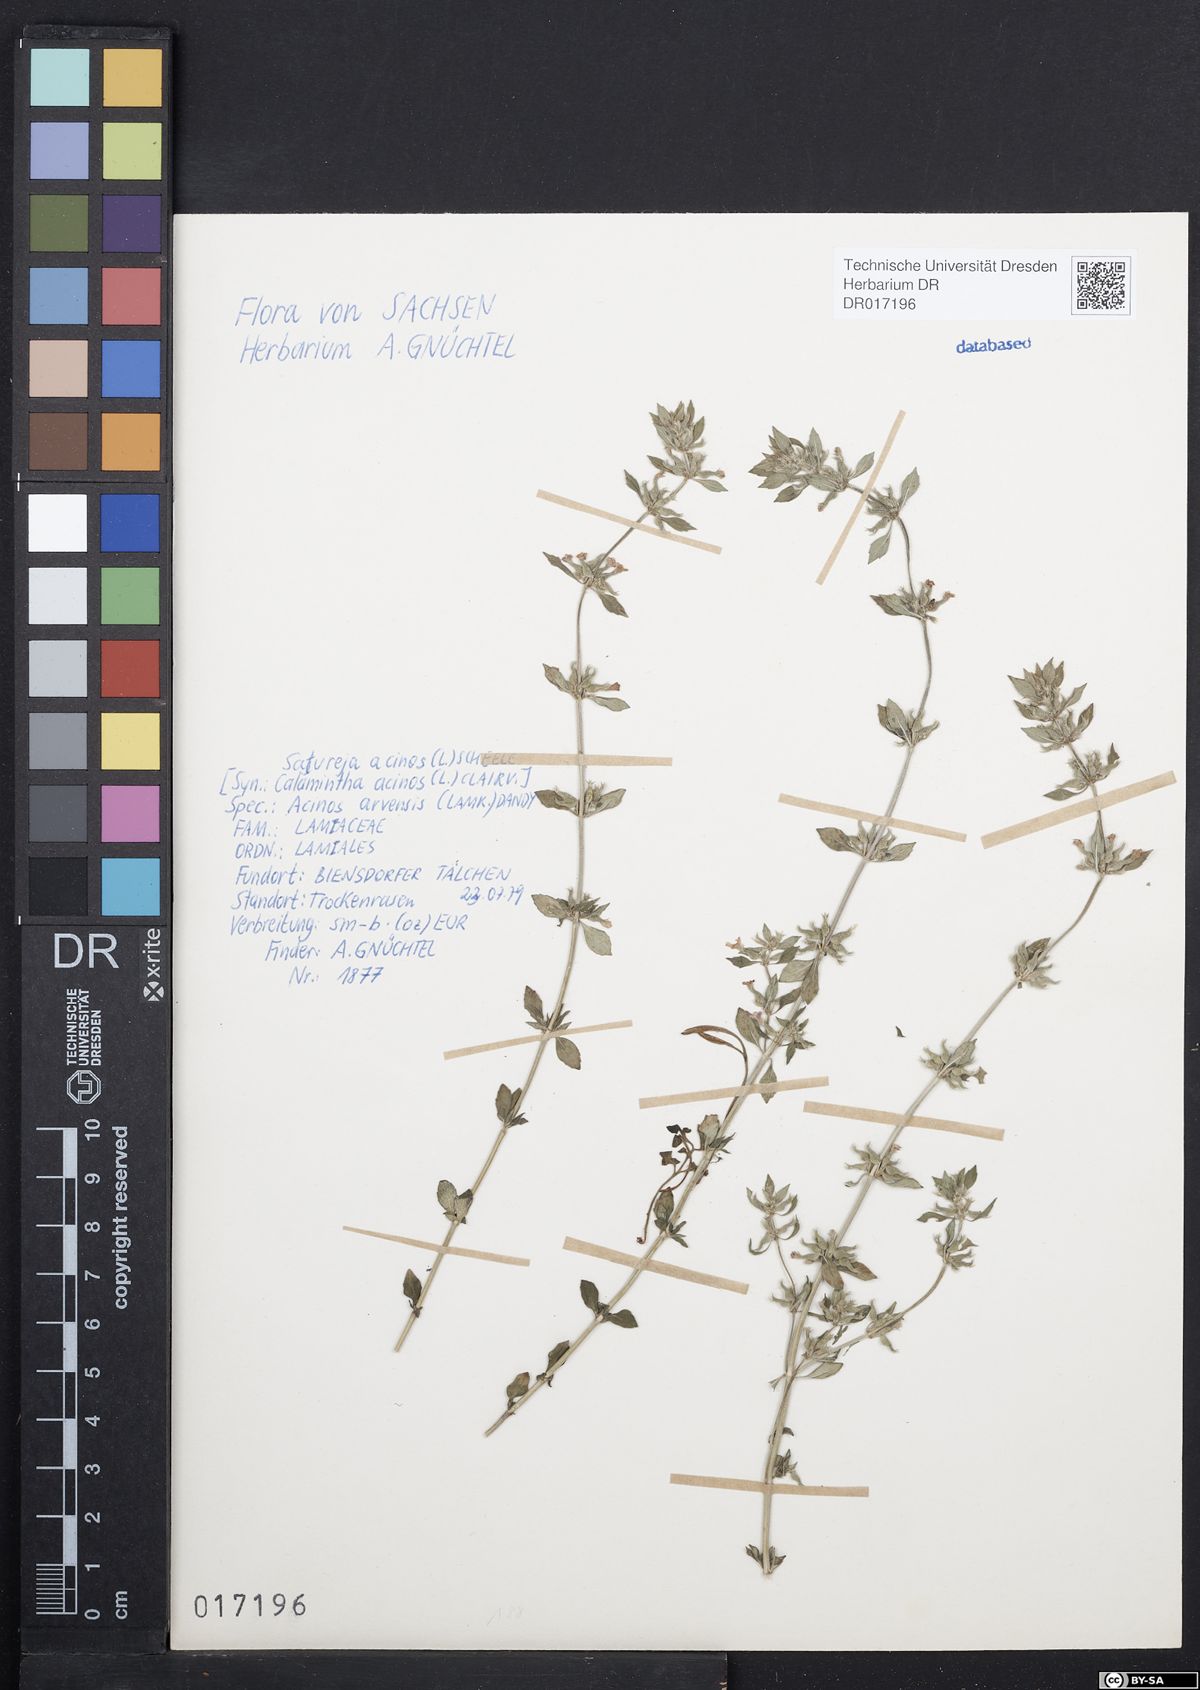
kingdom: Plantae
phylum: Tracheophyta
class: Magnoliopsida
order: Lamiales
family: Lamiaceae
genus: Clinopodium
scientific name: Clinopodium acinos
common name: Basil thyme
